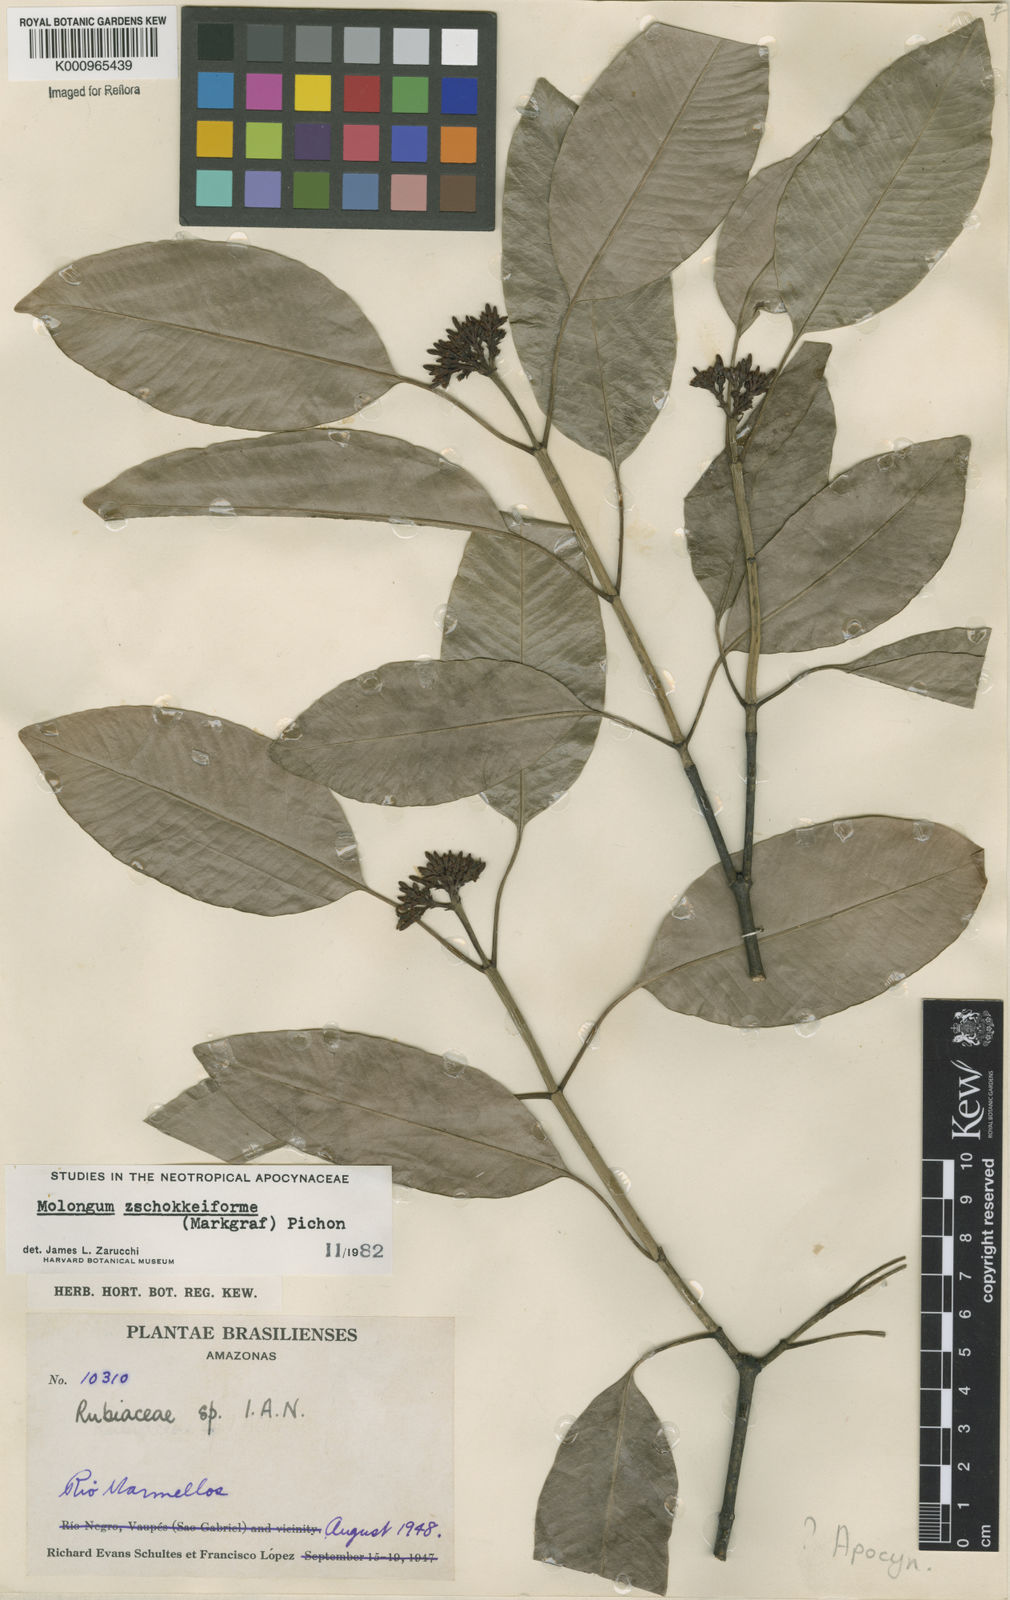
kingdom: Plantae
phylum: Tracheophyta
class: Magnoliopsida
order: Gentianales
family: Apocynaceae
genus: Molongum
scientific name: Molongum zschokkeiforme
